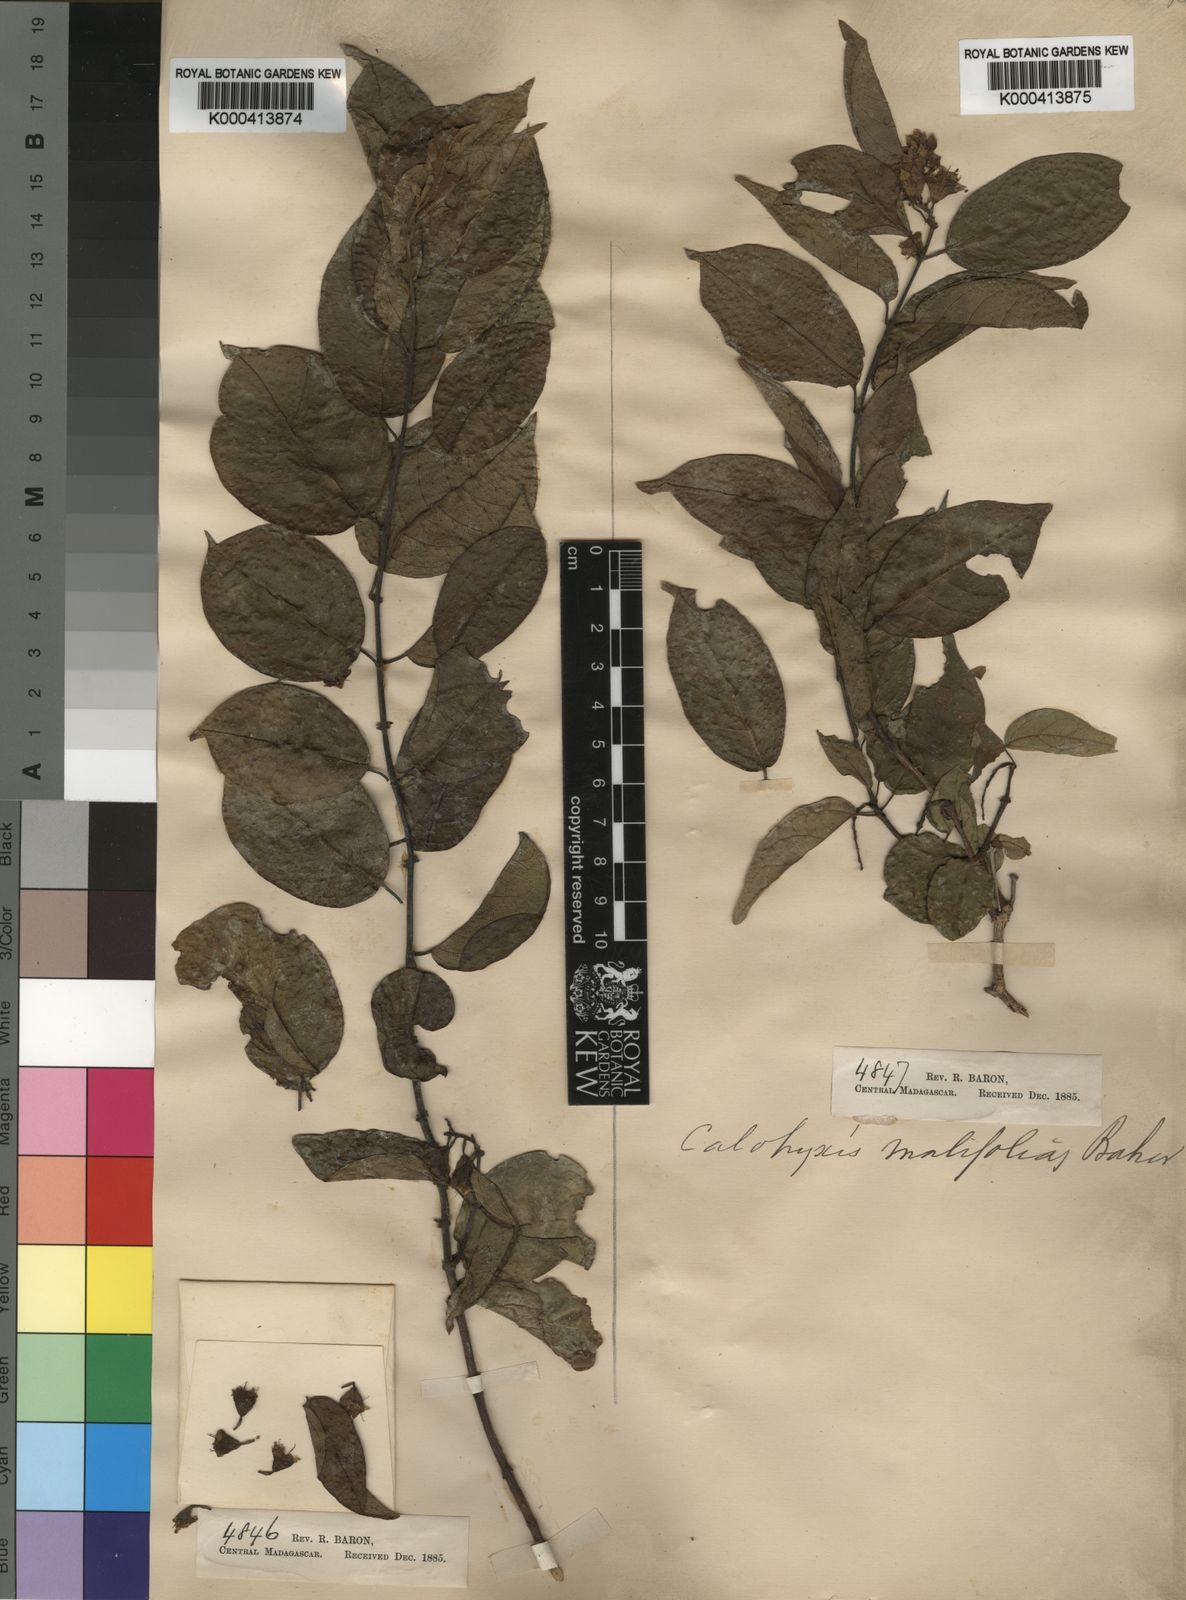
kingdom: Plantae
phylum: Tracheophyta
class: Magnoliopsida
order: Myrtales
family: Combretaceae
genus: Combretum
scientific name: Combretum
